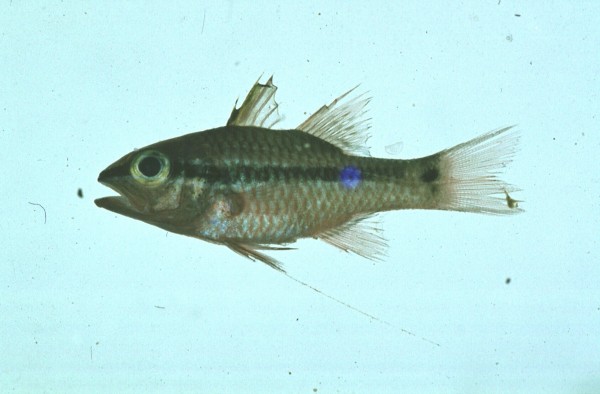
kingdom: Animalia
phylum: Chordata
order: Perciformes
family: Apogonidae
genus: Pristiapogon
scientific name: Pristiapogon kallopterus
